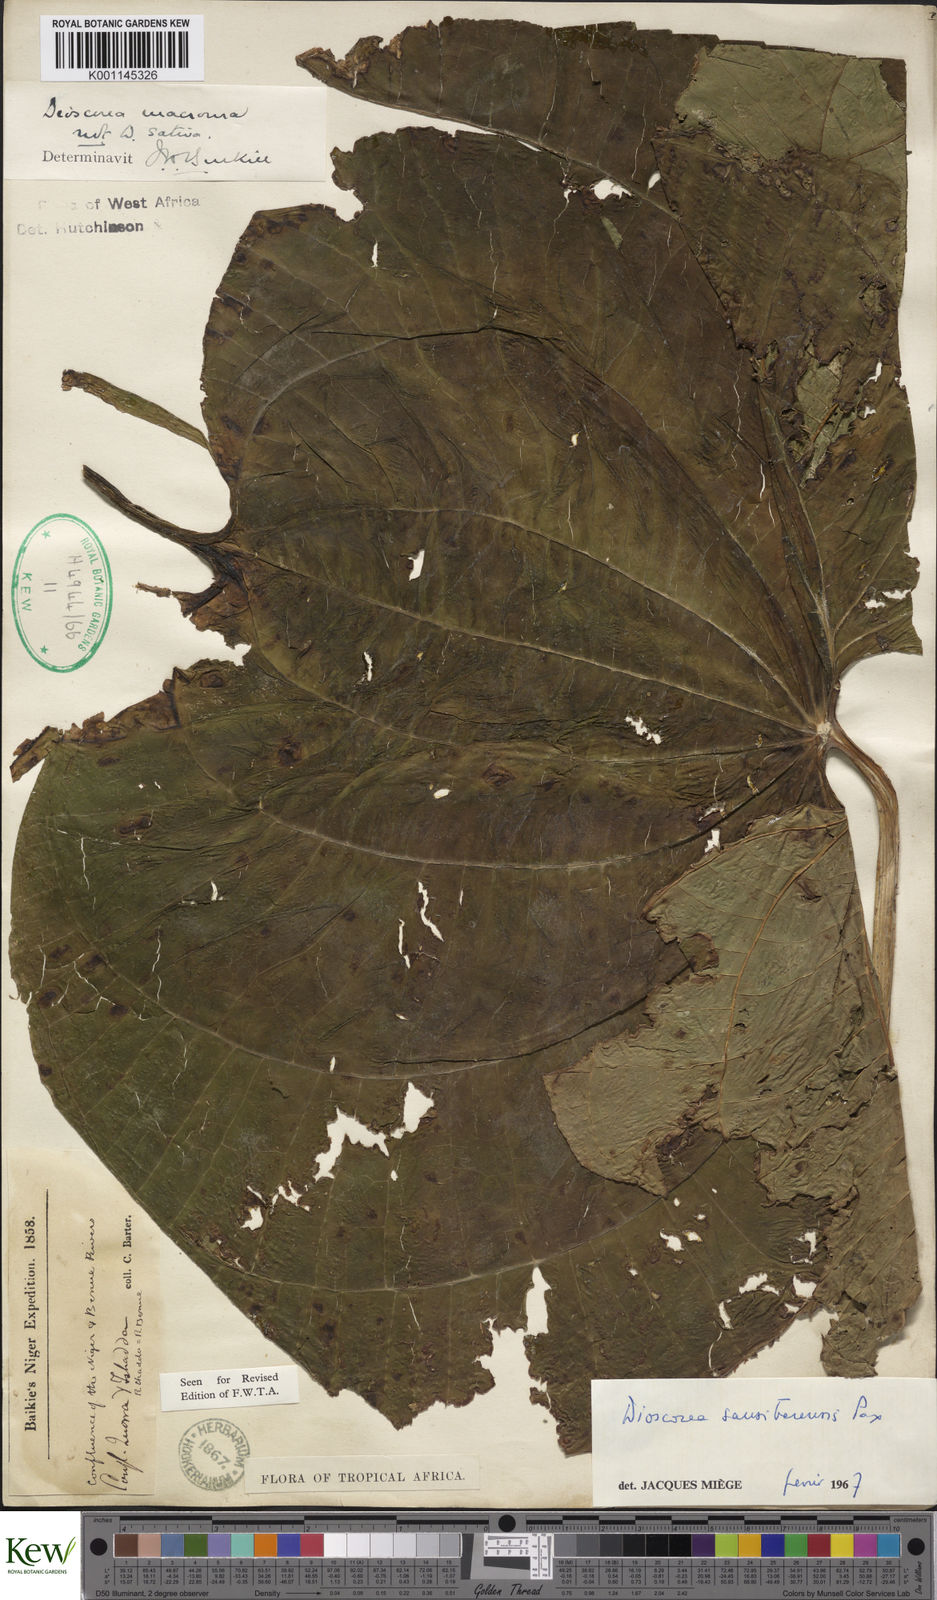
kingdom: Plantae
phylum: Tracheophyta
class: Liliopsida
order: Dioscoreales
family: Dioscoreaceae
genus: Dioscorea
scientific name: Dioscorea sansibarensis
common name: Zanzibar yam
